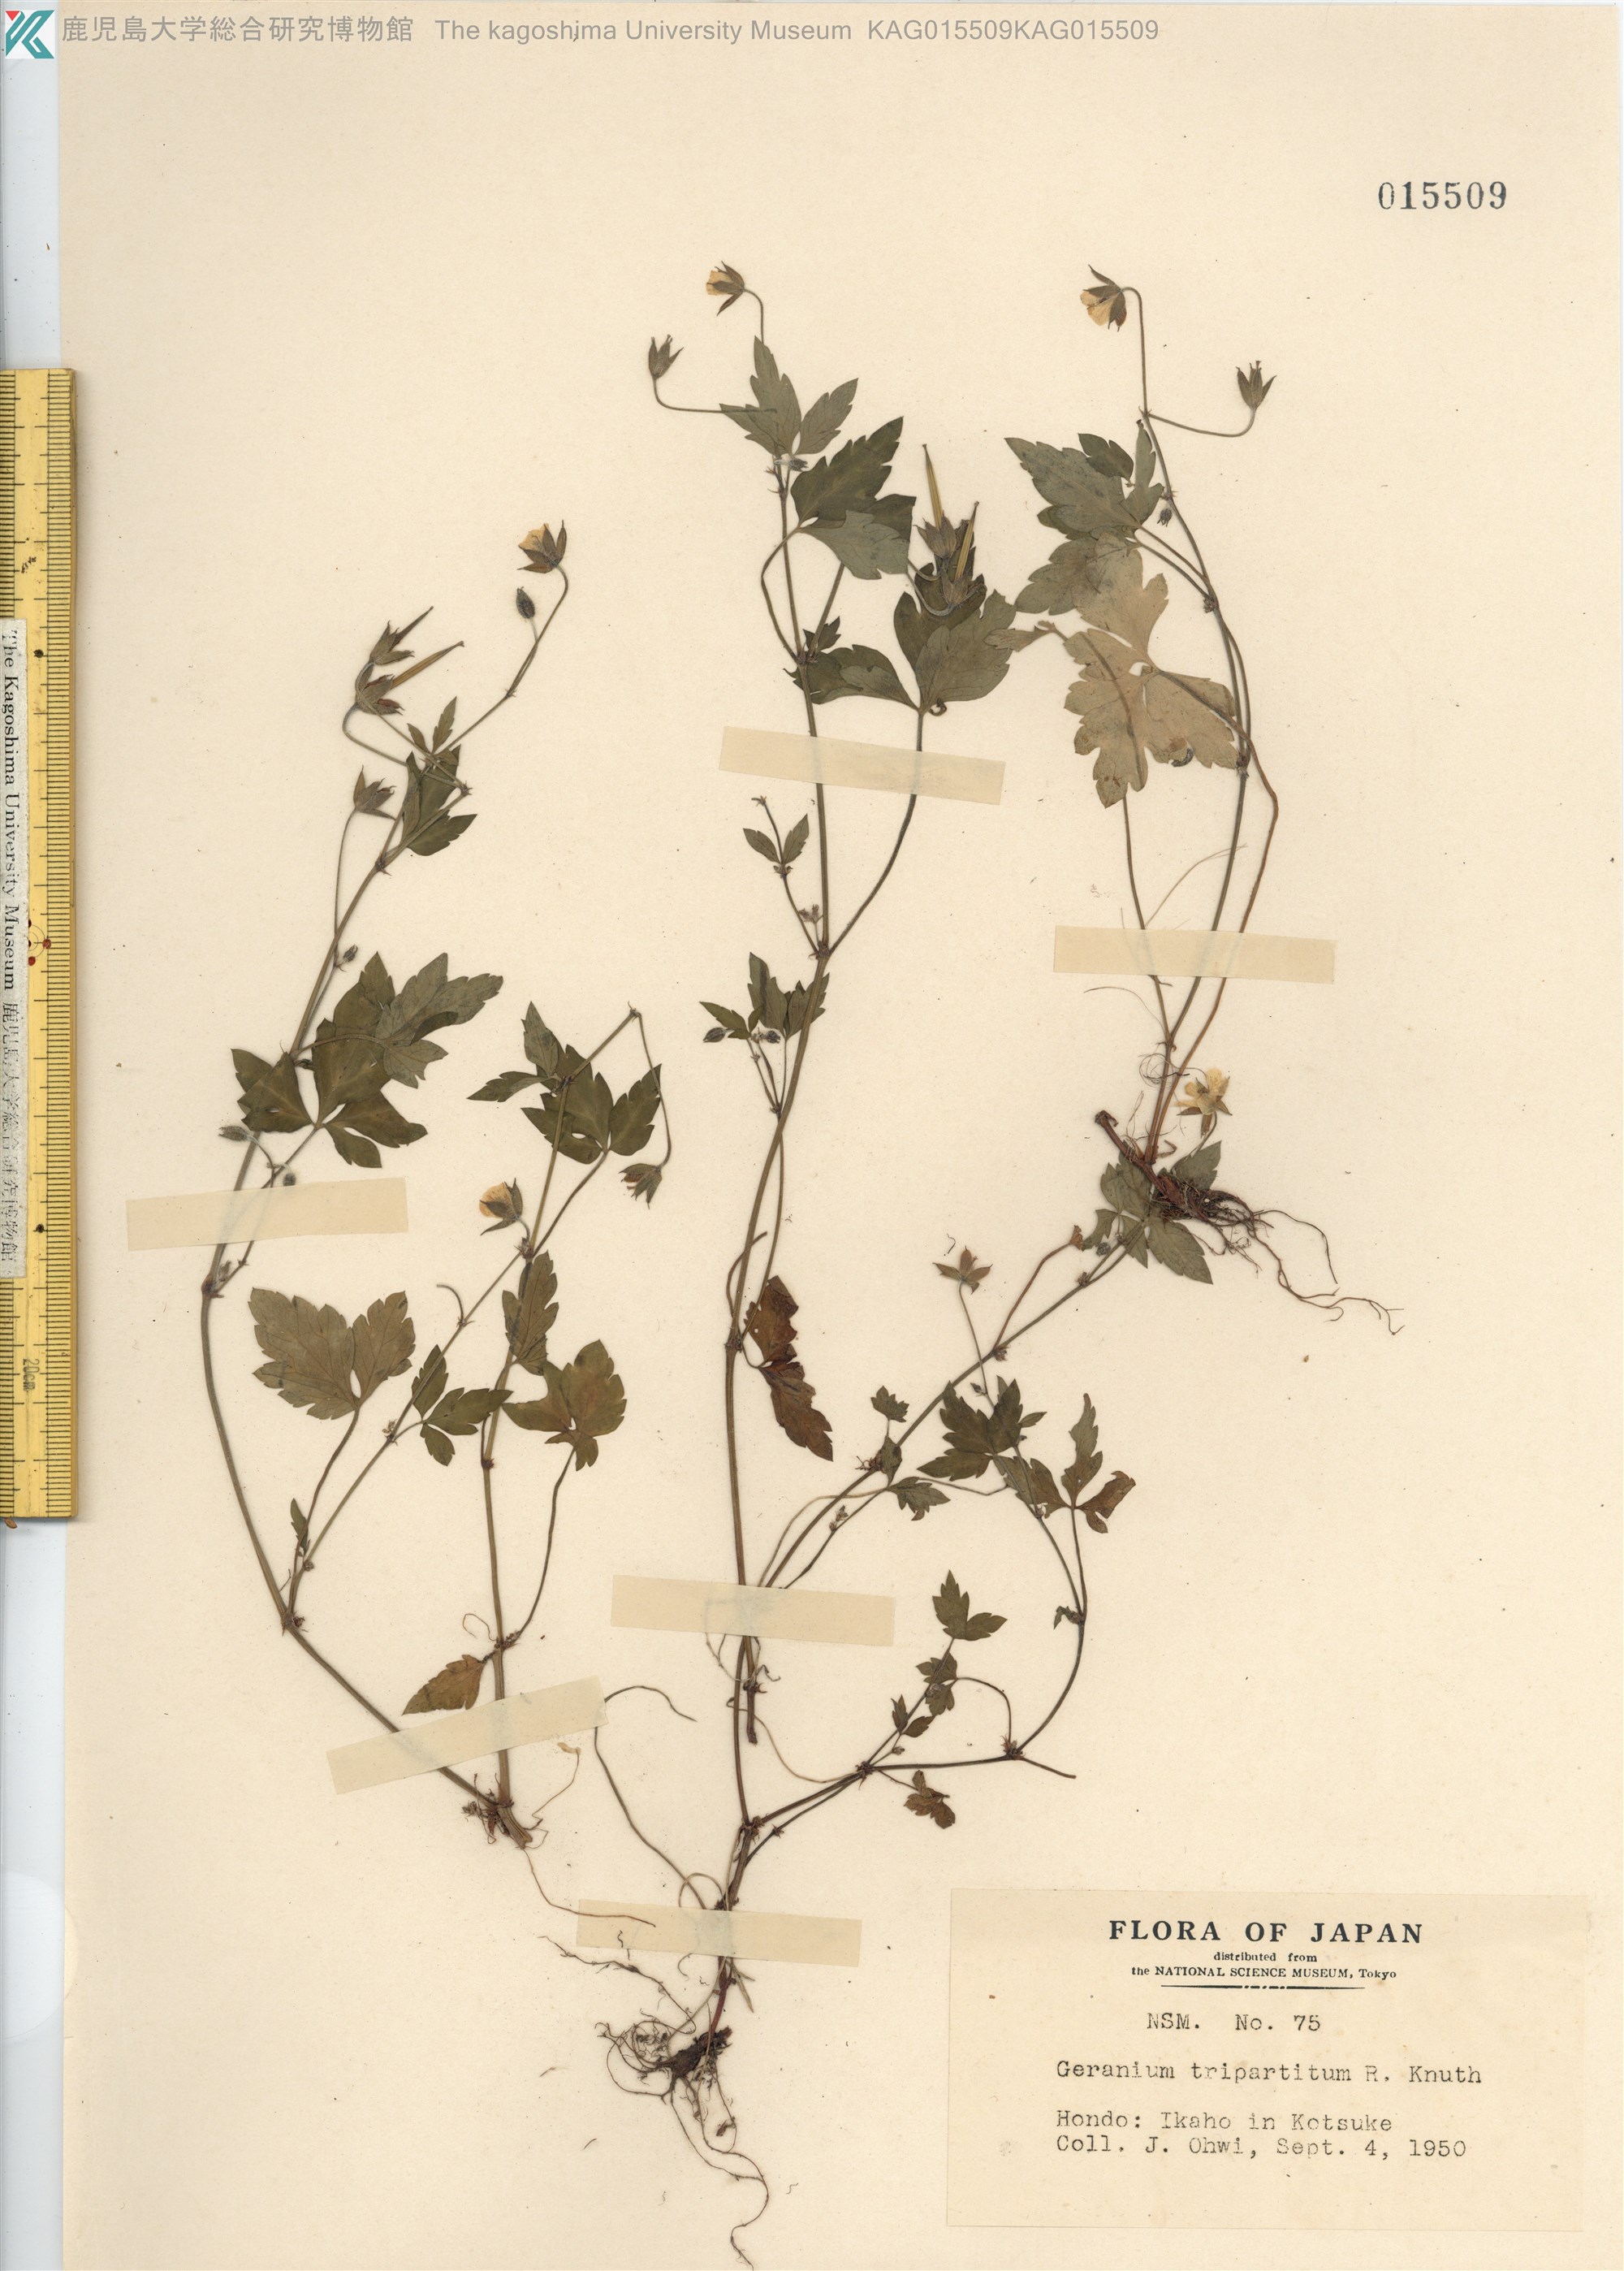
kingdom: Plantae
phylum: Tracheophyta
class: Magnoliopsida
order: Geraniales
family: Geraniaceae
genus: Geranium
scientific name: Geranium tripartitum
